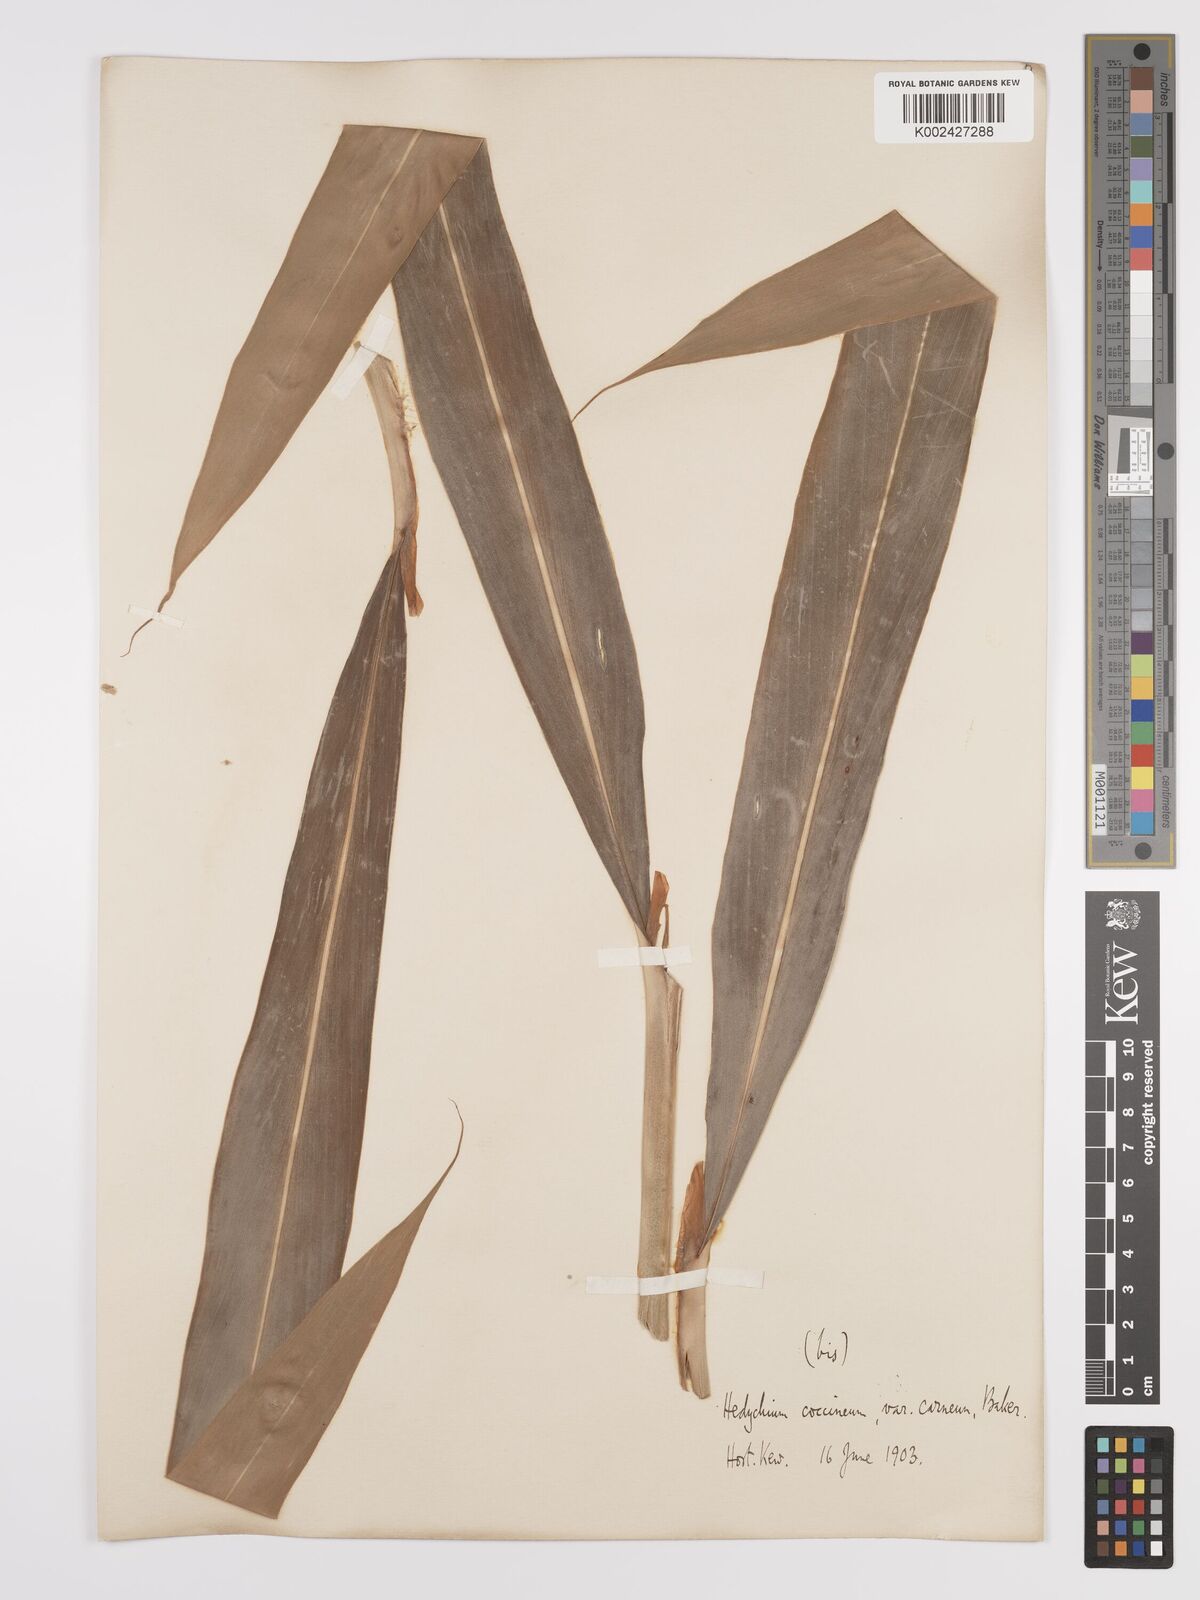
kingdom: Plantae
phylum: Tracheophyta
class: Liliopsida
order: Zingiberales
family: Zingiberaceae
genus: Hedychium
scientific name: Hedychium coccineum
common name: Red ginger-lily
